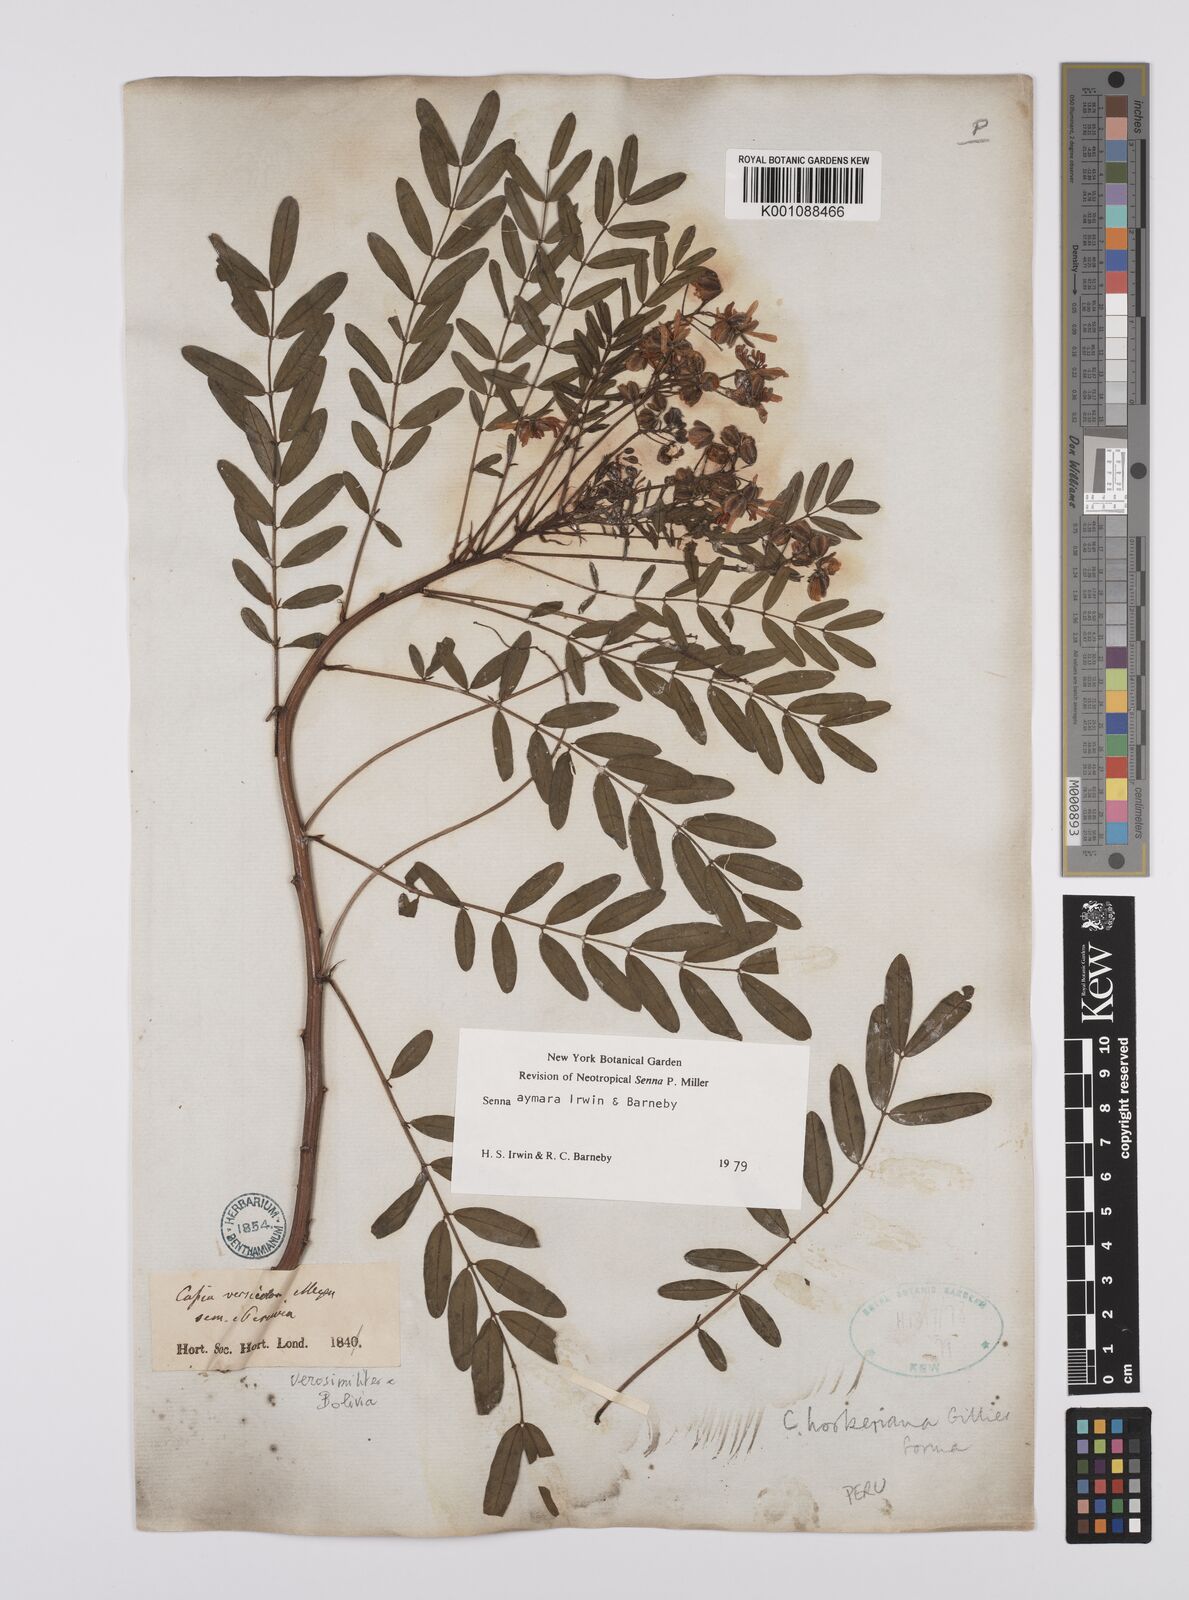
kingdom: Plantae
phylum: Tracheophyta
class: Magnoliopsida
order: Fabales
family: Fabaceae
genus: Senna
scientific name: Senna aymara
